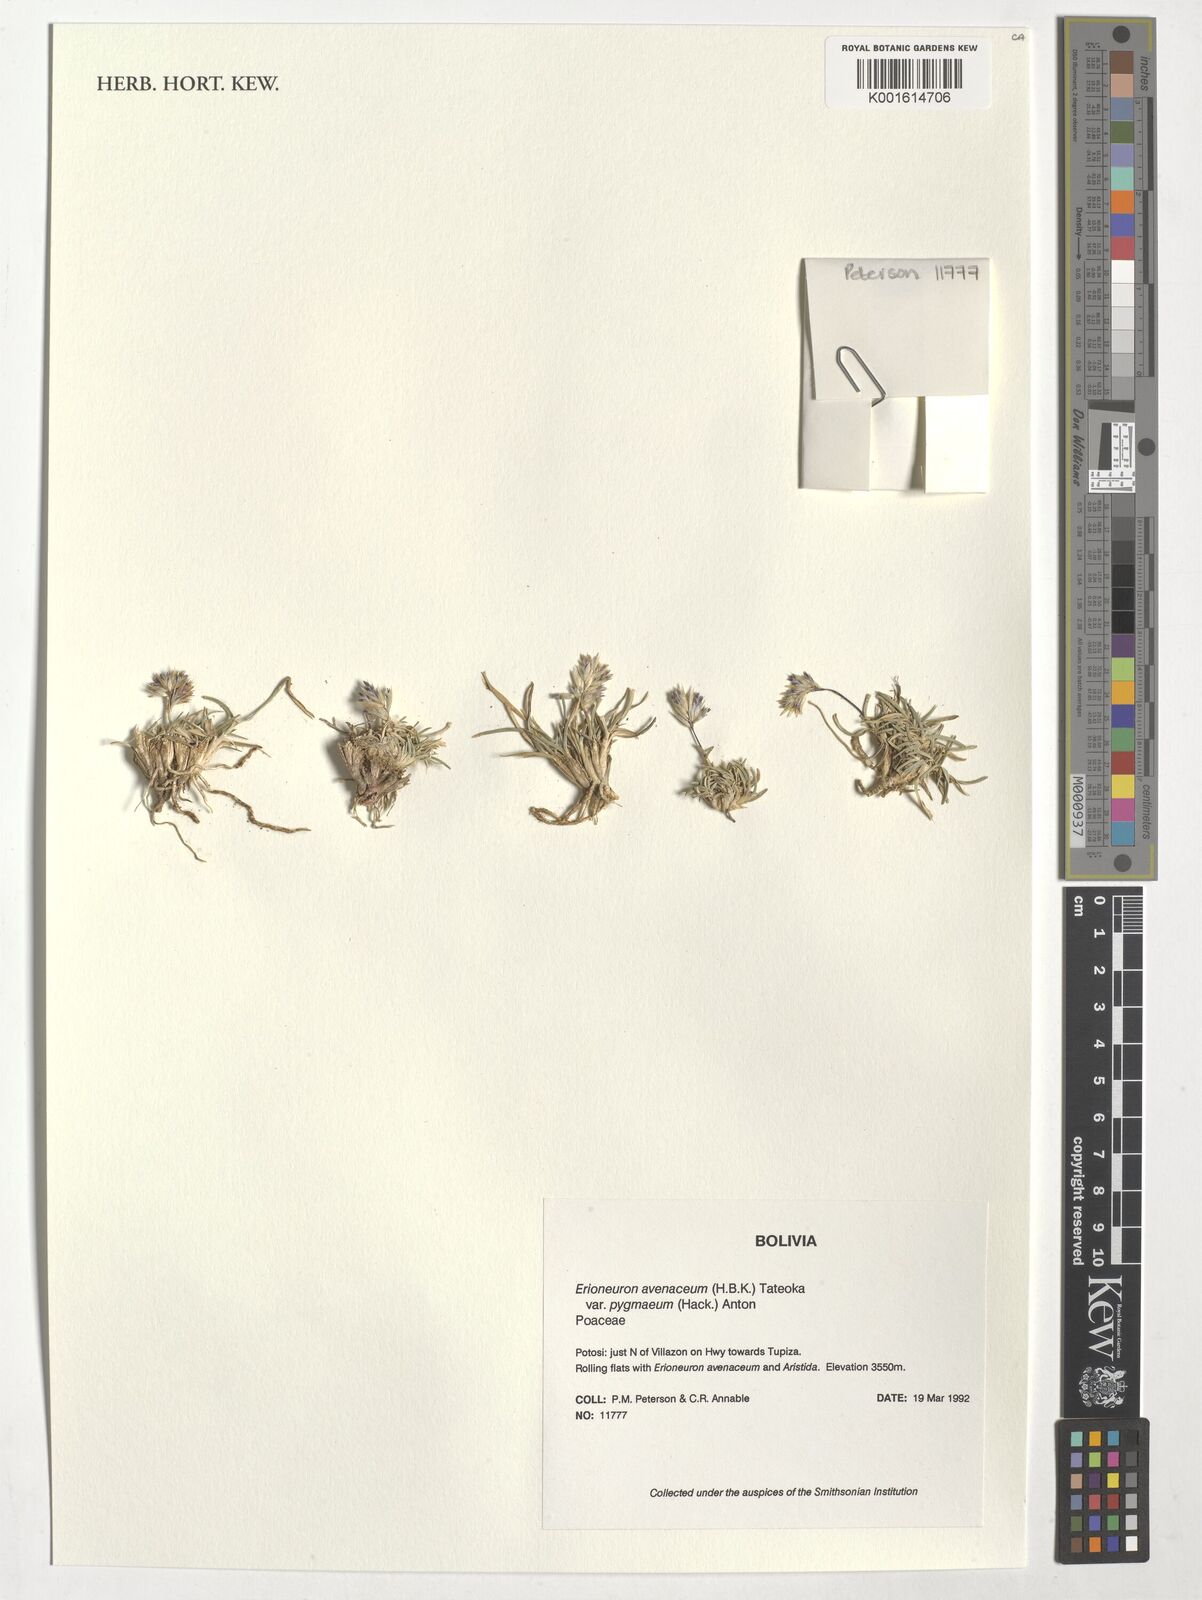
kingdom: Plantae
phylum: Tracheophyta
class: Liliopsida
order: Poales
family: Poaceae
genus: Erioneuron
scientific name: Erioneuron pilosum
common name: Hairy woolly grass
